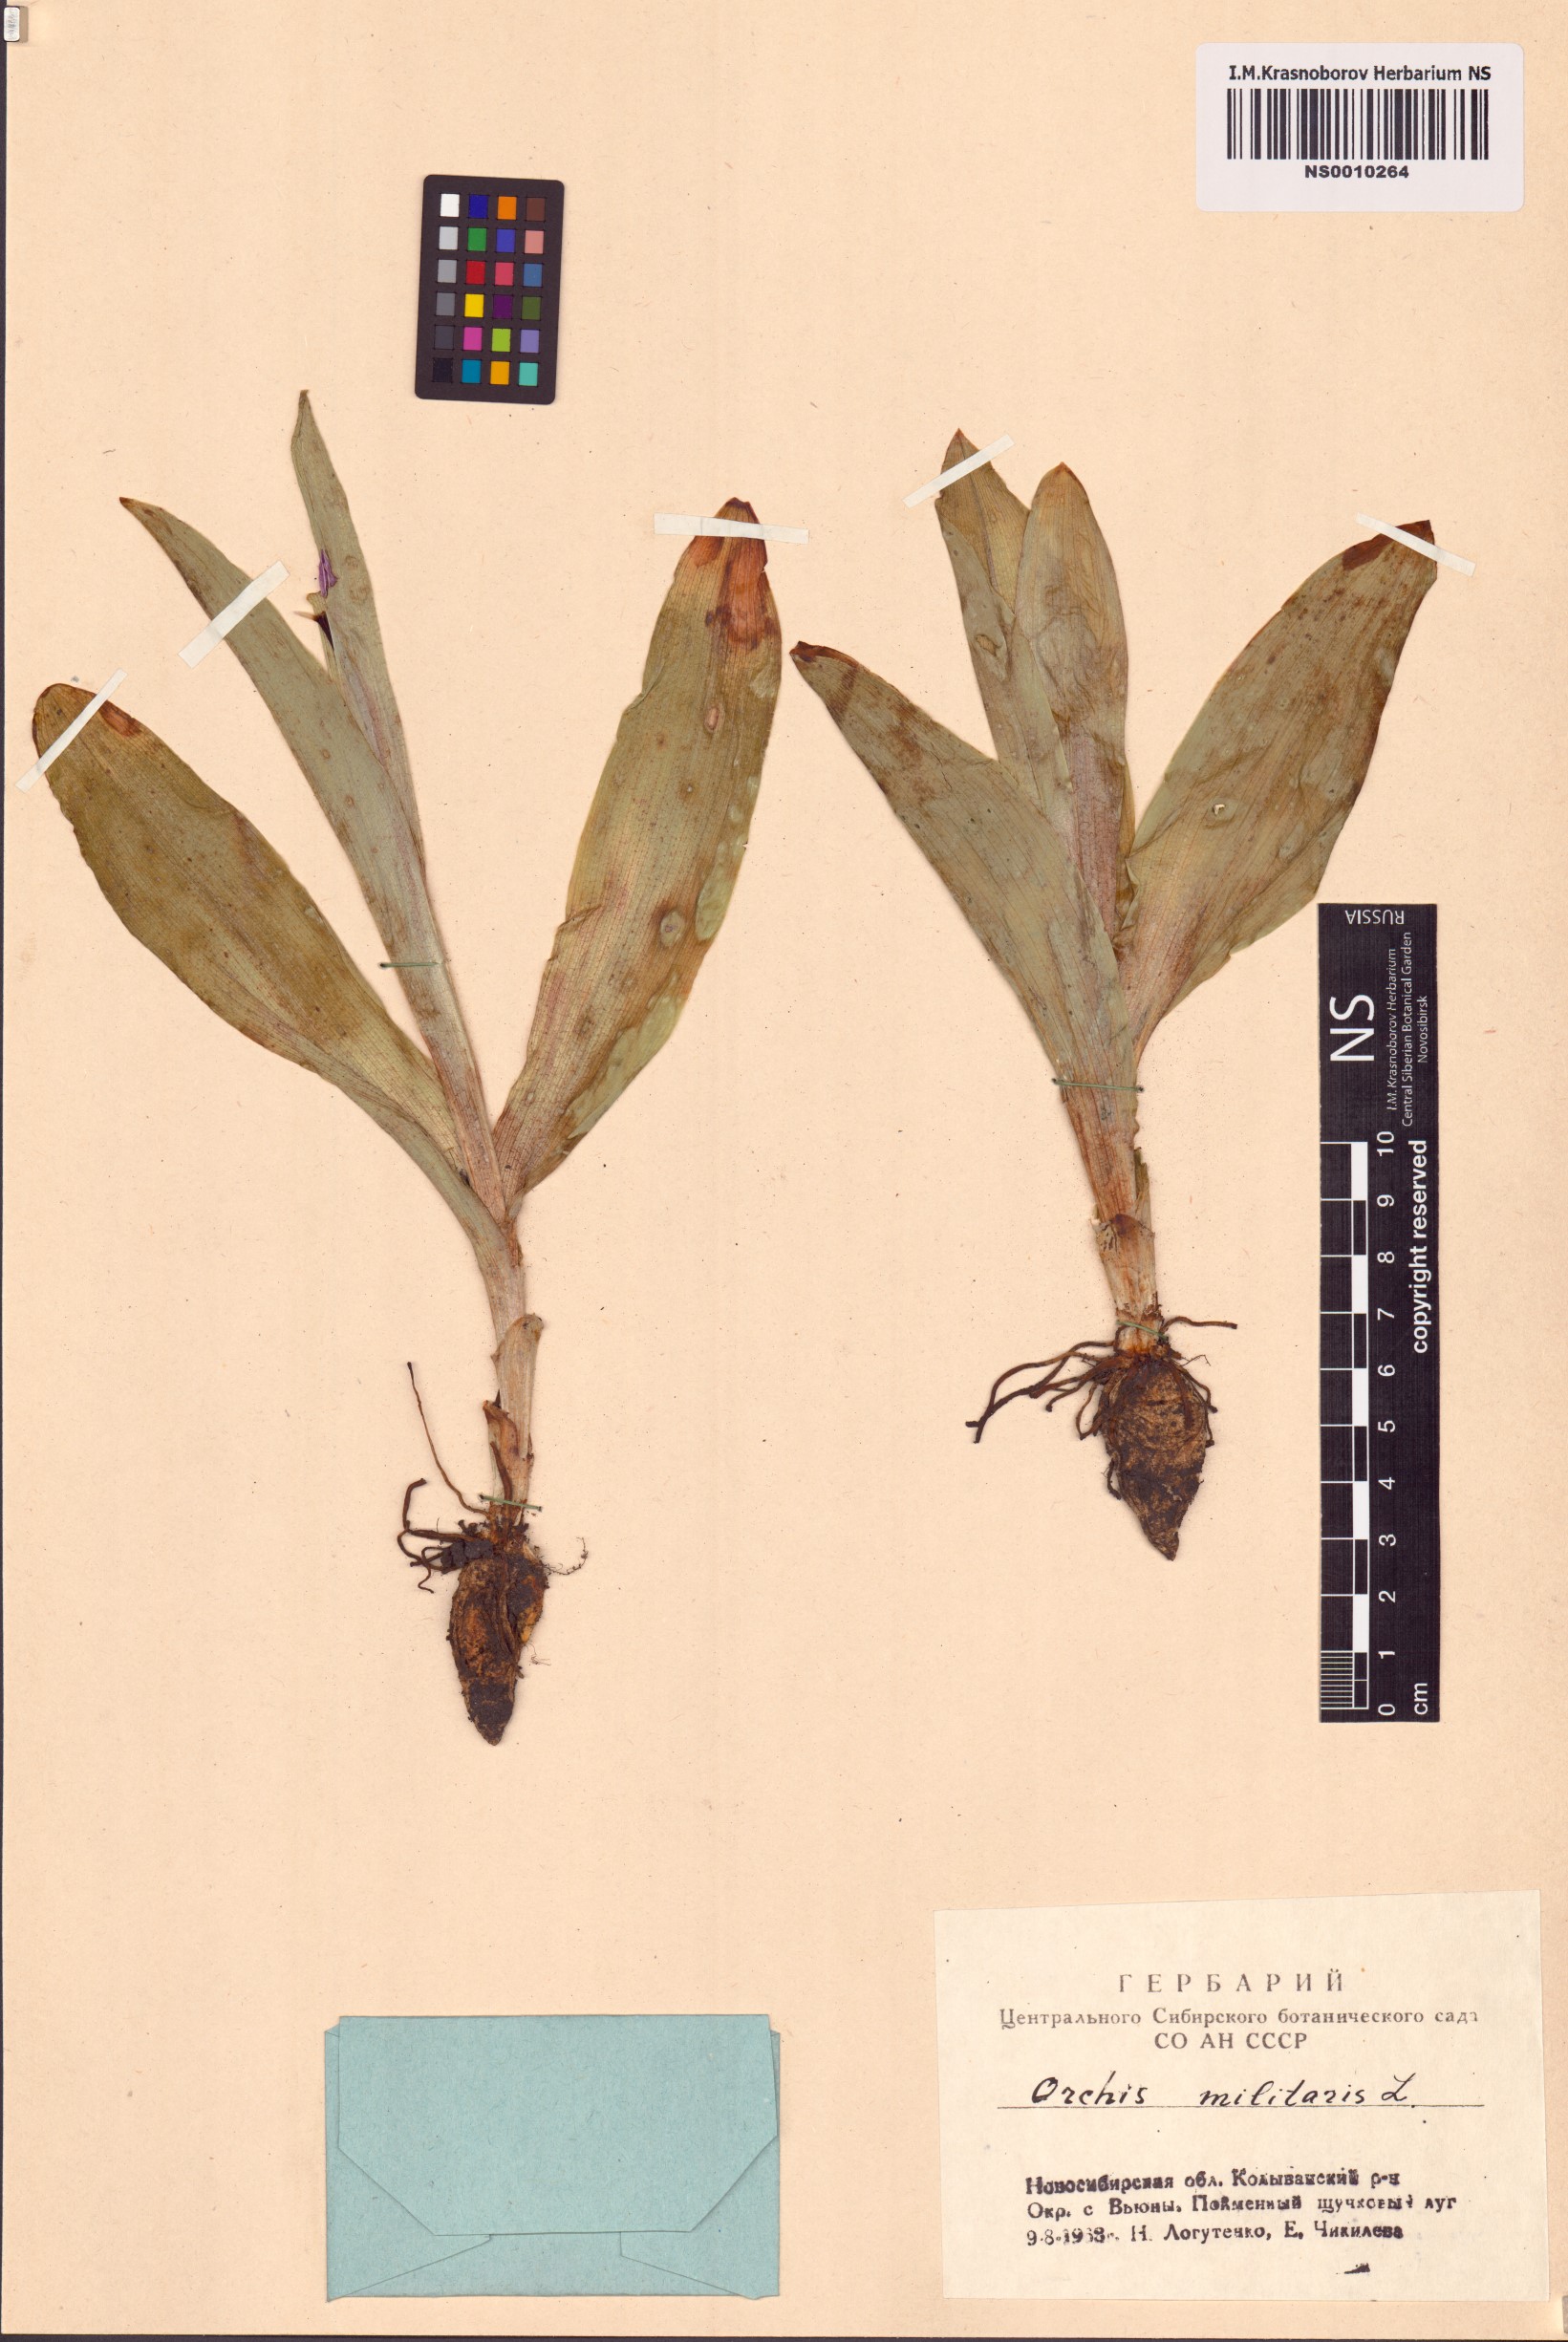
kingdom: Plantae
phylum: Tracheophyta
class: Liliopsida
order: Asparagales
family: Orchidaceae
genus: Orchis
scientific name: Orchis militaris
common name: Military orchid
